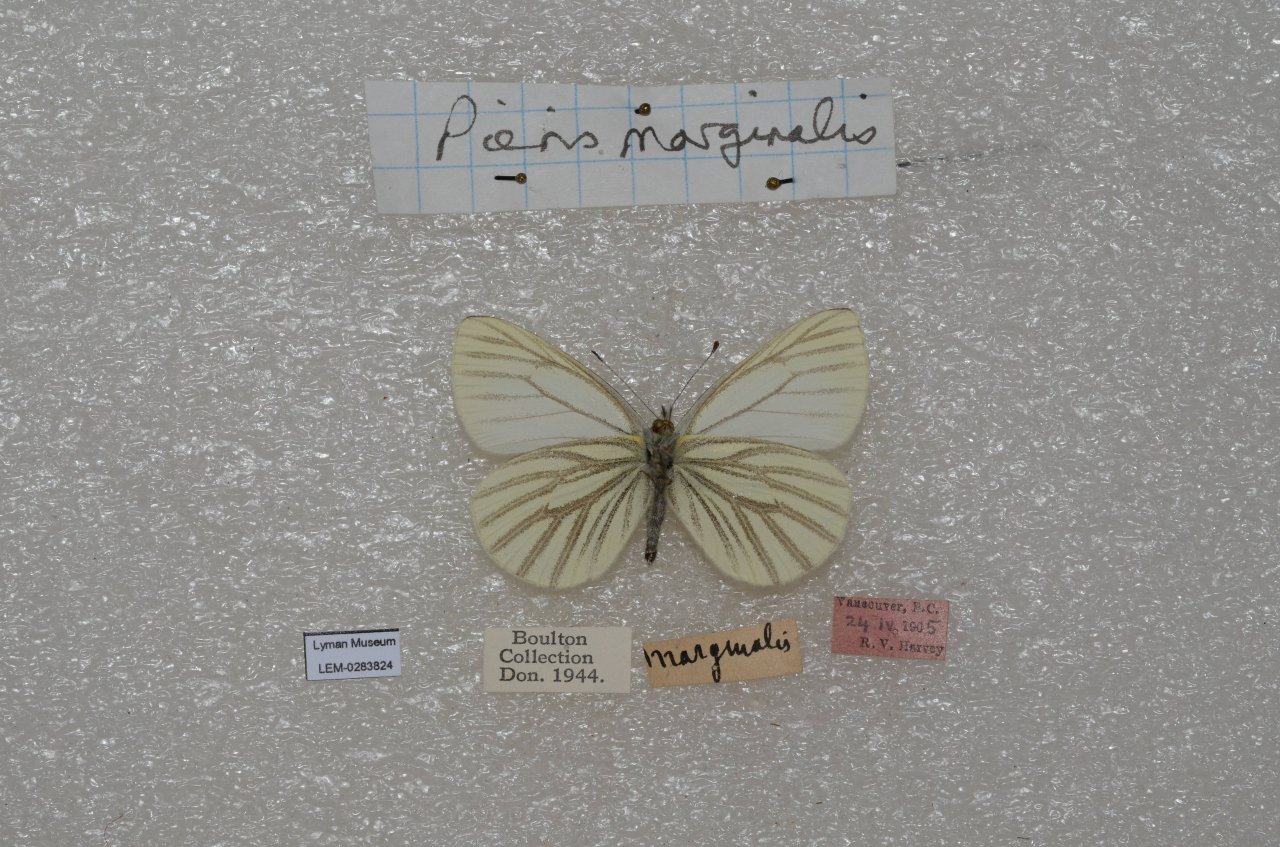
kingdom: Animalia
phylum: Arthropoda
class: Insecta
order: Lepidoptera
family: Pieridae
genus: Pieris
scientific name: Pieris marginalis
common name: Margined White
